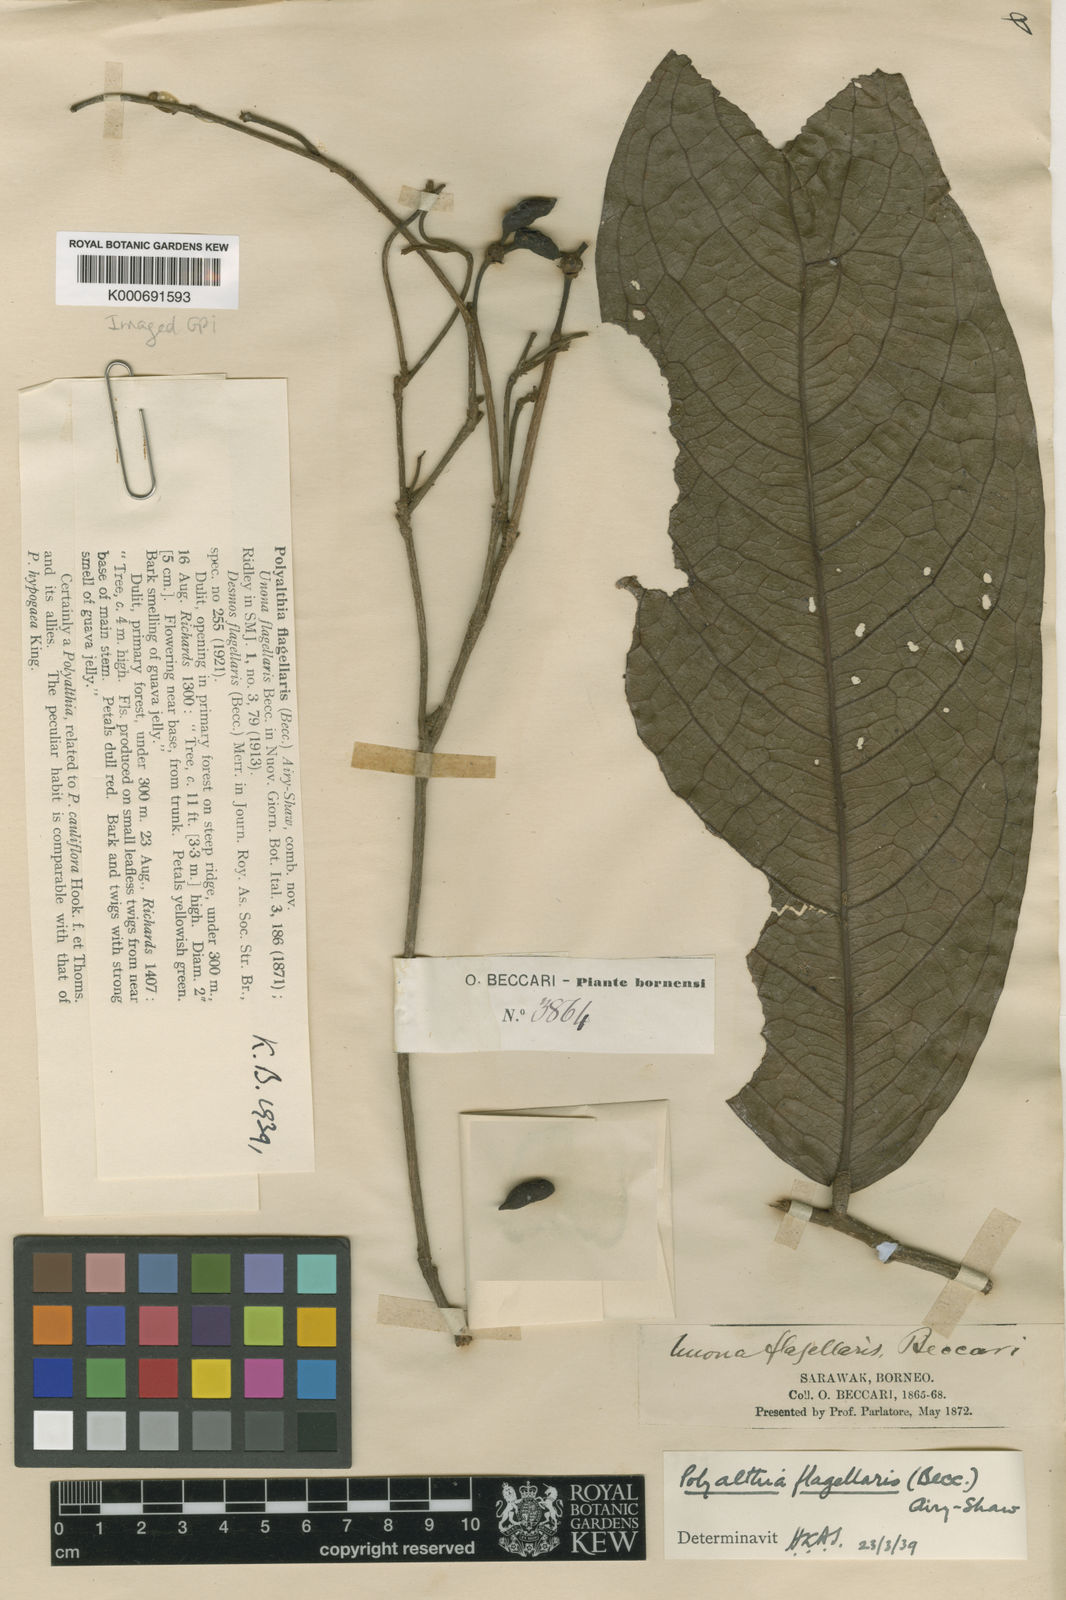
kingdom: Plantae
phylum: Tracheophyta
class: Magnoliopsida
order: Magnoliales
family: Annonaceae
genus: Polyalthia
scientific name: Polyalthia flagellaris
